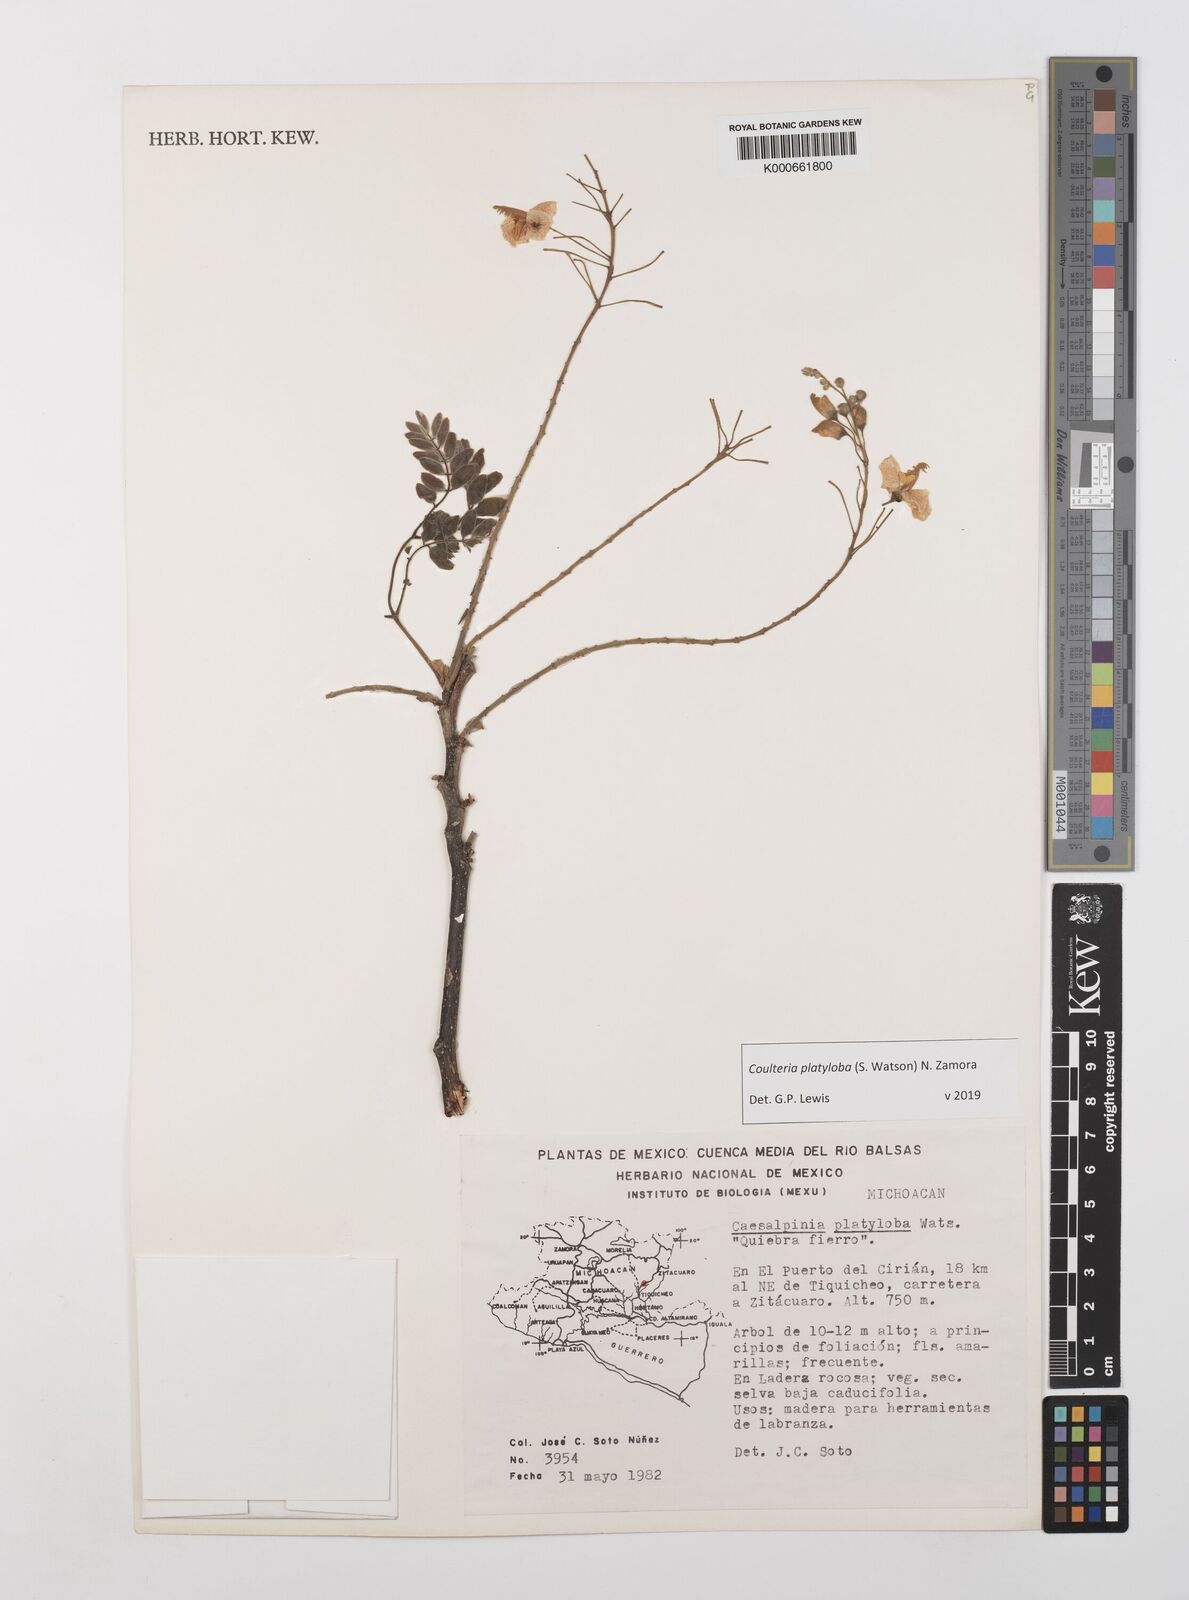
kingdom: Plantae
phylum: Tracheophyta
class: Magnoliopsida
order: Fabales
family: Fabaceae
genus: Coulteria
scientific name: Coulteria platyloba
